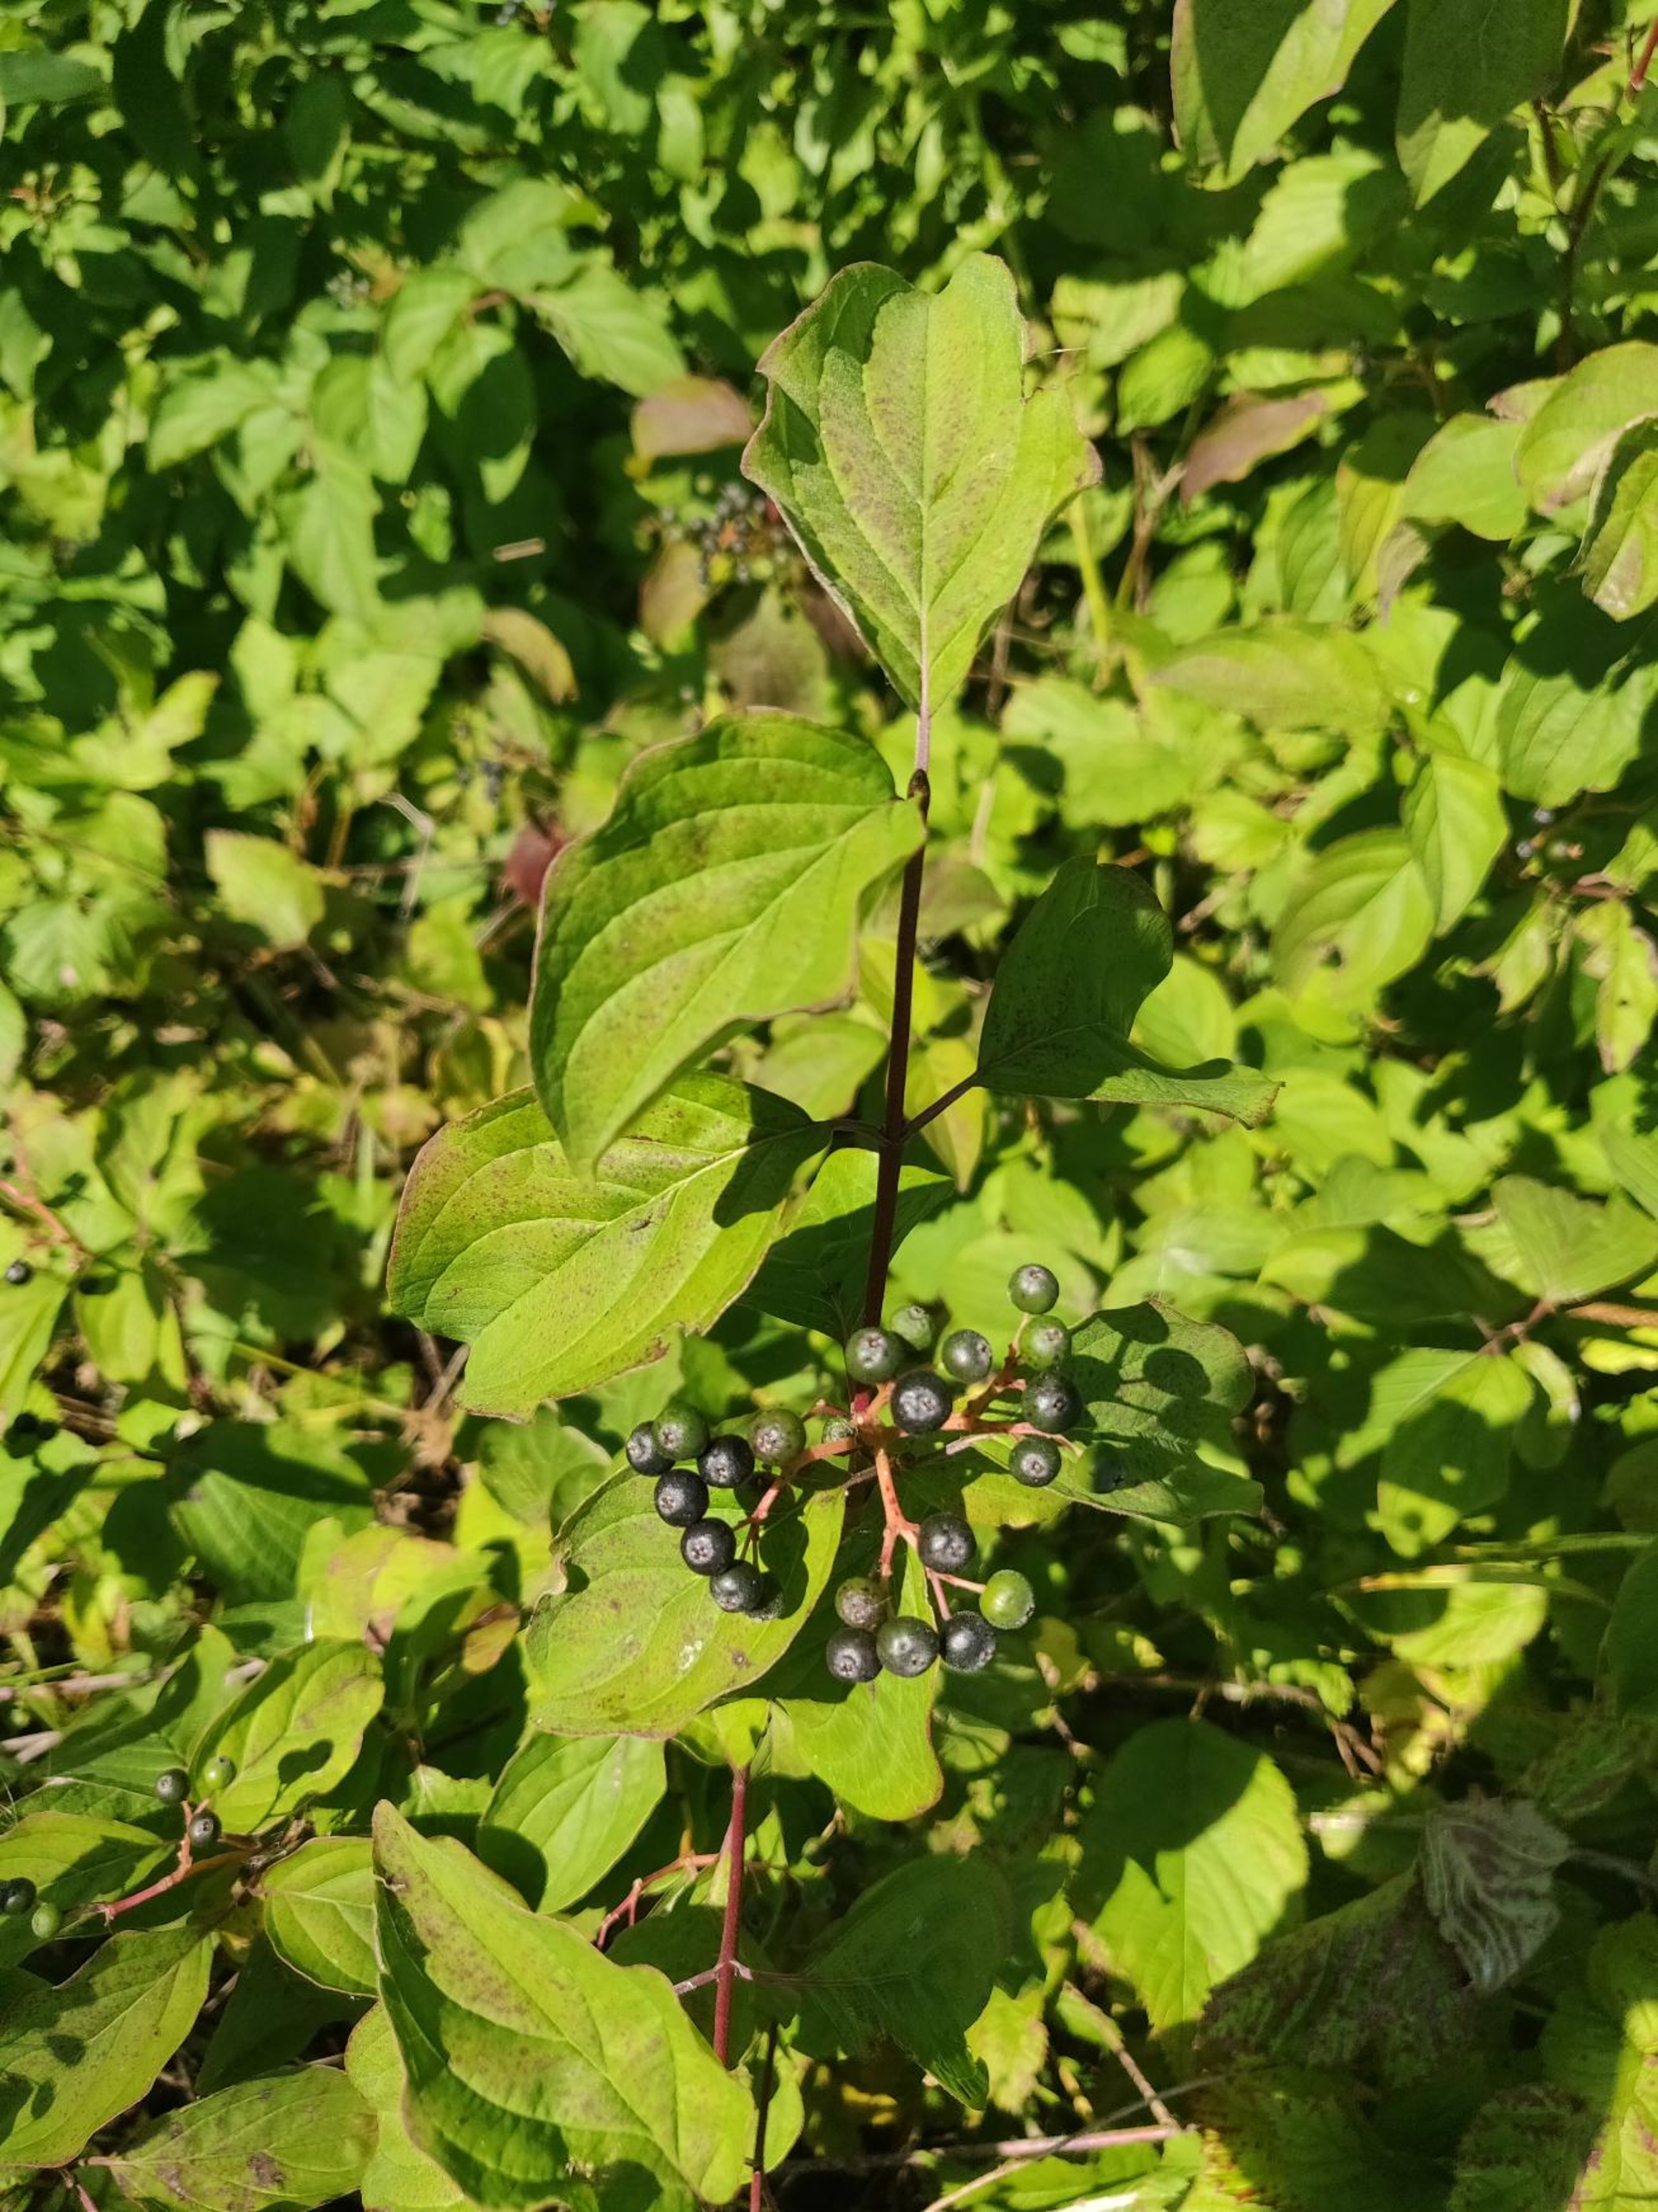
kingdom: Plantae
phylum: Tracheophyta
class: Magnoliopsida
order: Cornales
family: Cornaceae
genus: Cornus
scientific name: Cornus sanguinea
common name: Rød kornel
